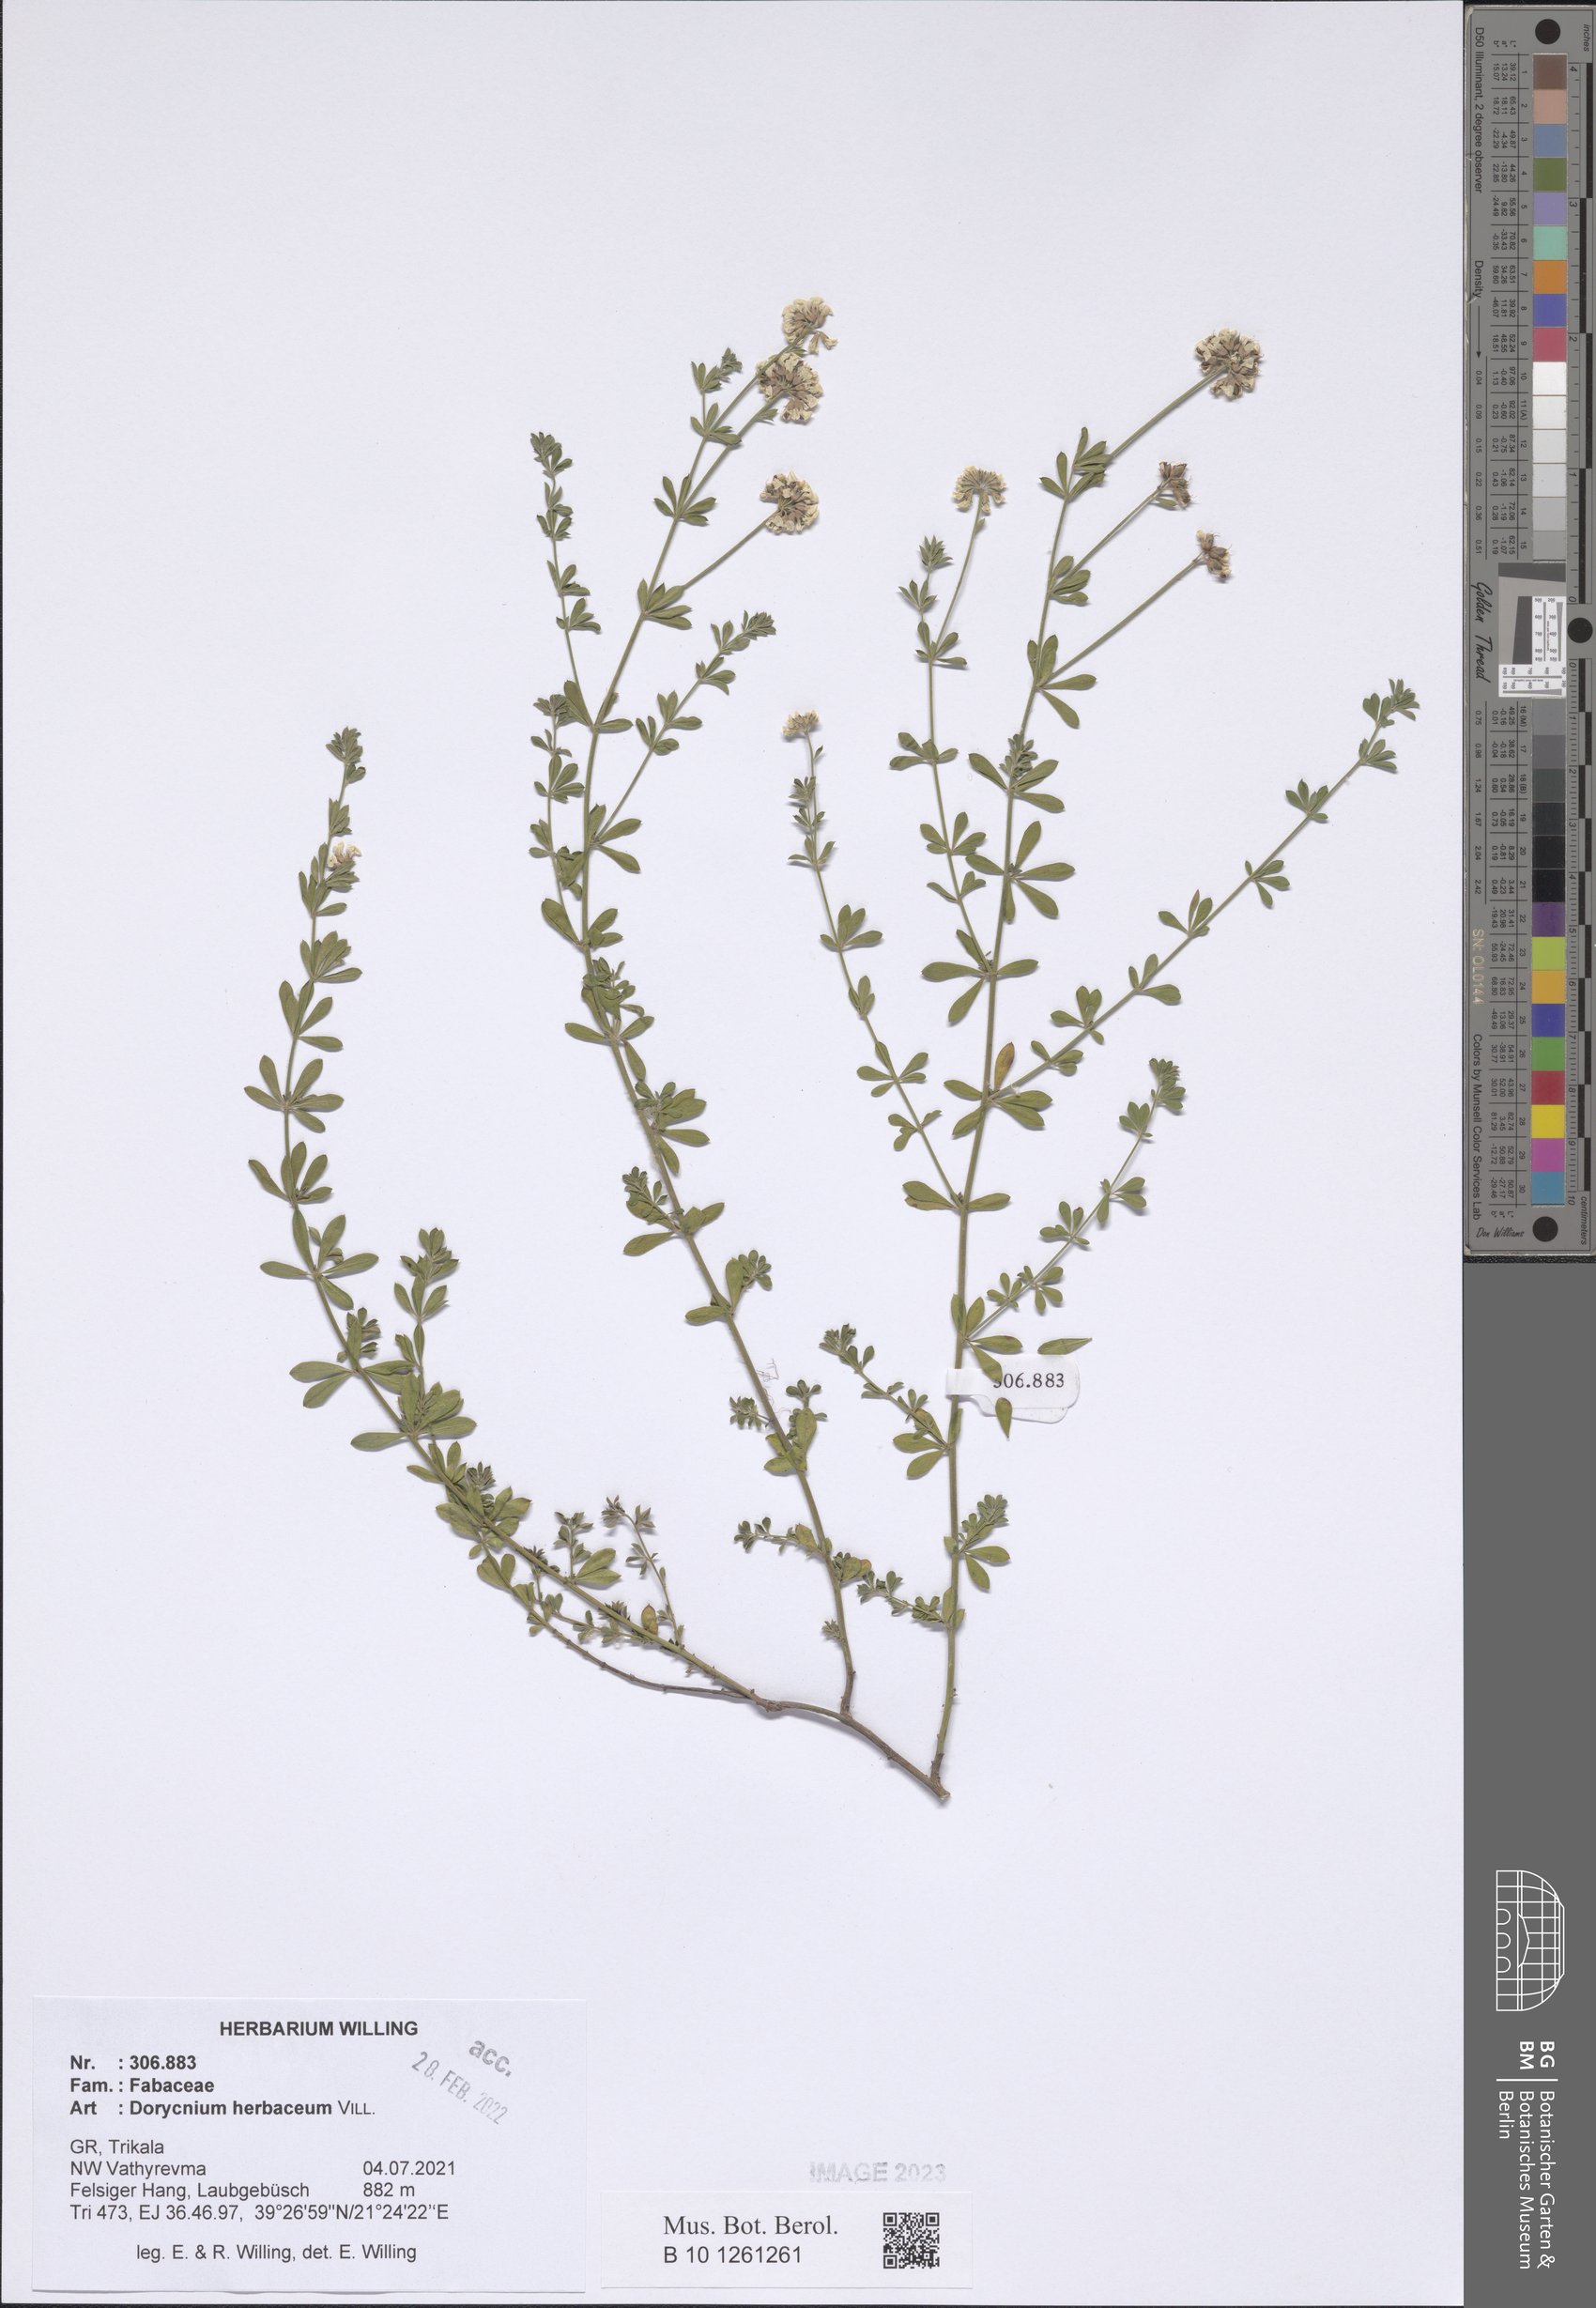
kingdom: Plantae
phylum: Tracheophyta
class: Magnoliopsida
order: Fabales
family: Fabaceae
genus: Lotus
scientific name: Lotus herbaceus
